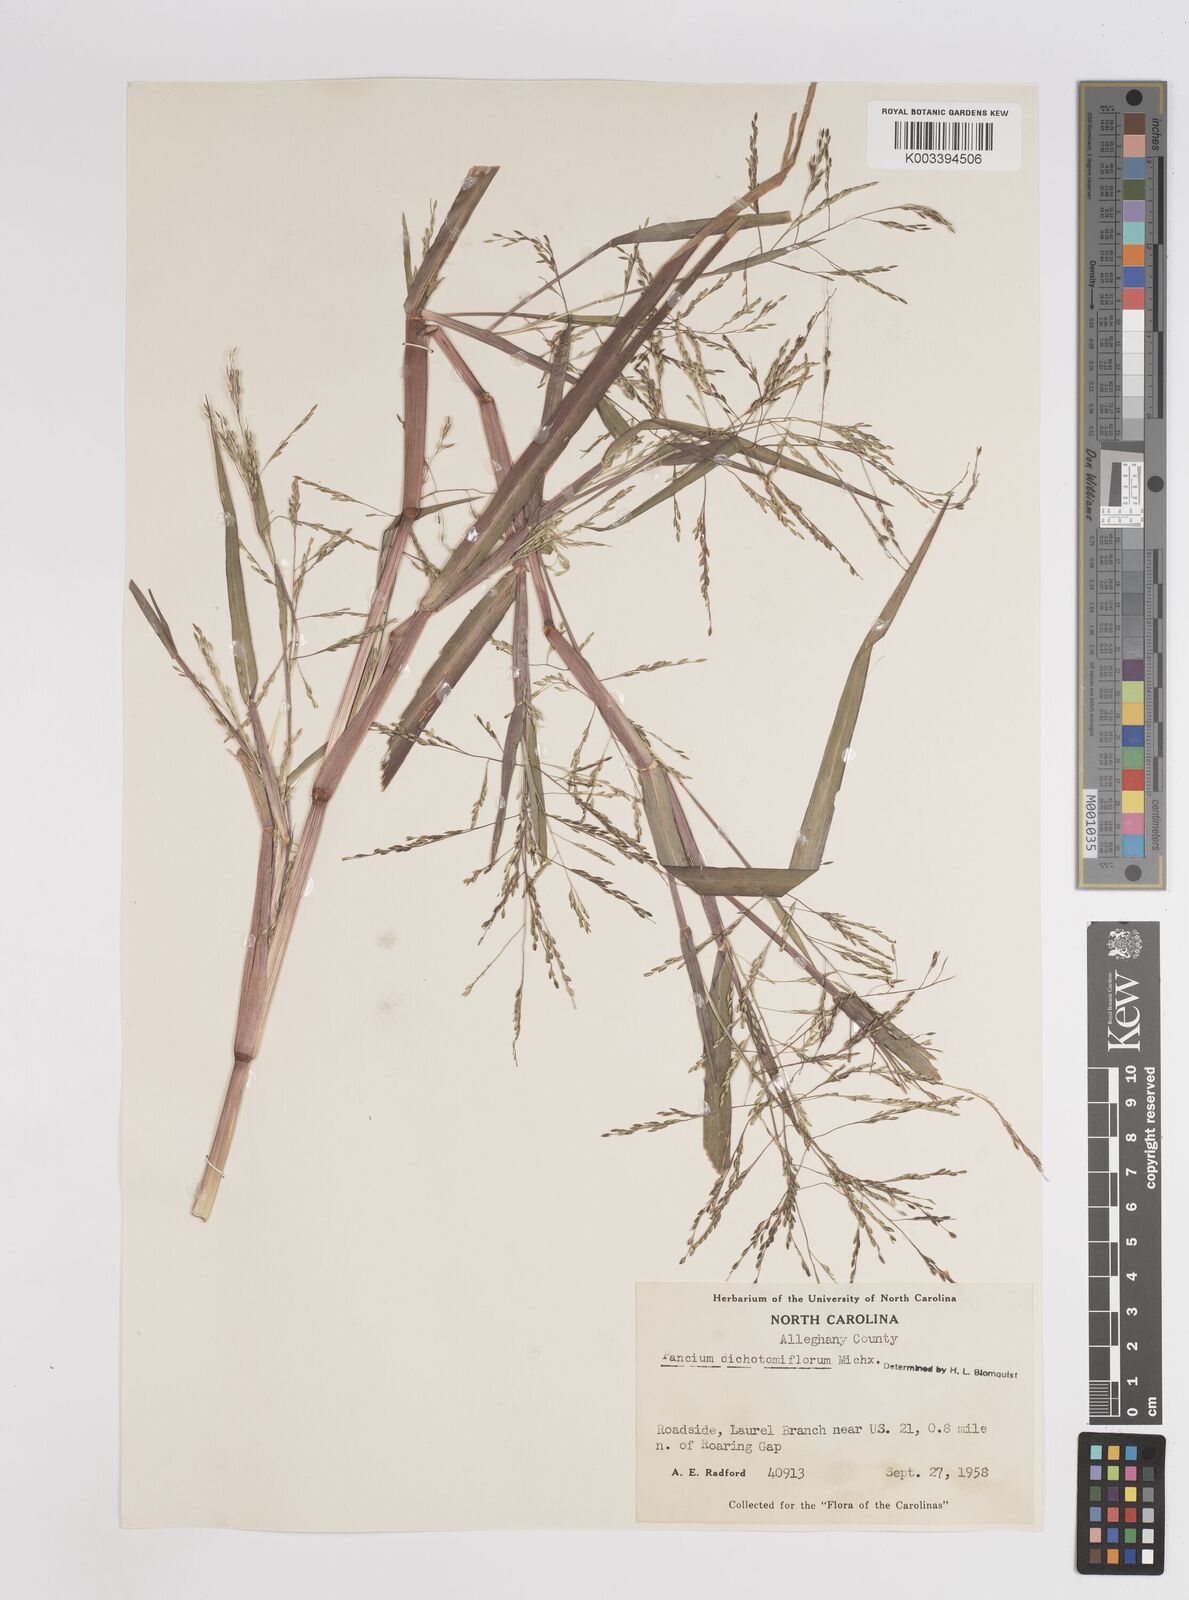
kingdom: Plantae
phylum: Tracheophyta
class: Liliopsida
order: Poales
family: Poaceae
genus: Panicum
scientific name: Panicum dichotomiflorum
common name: Autumn millet
